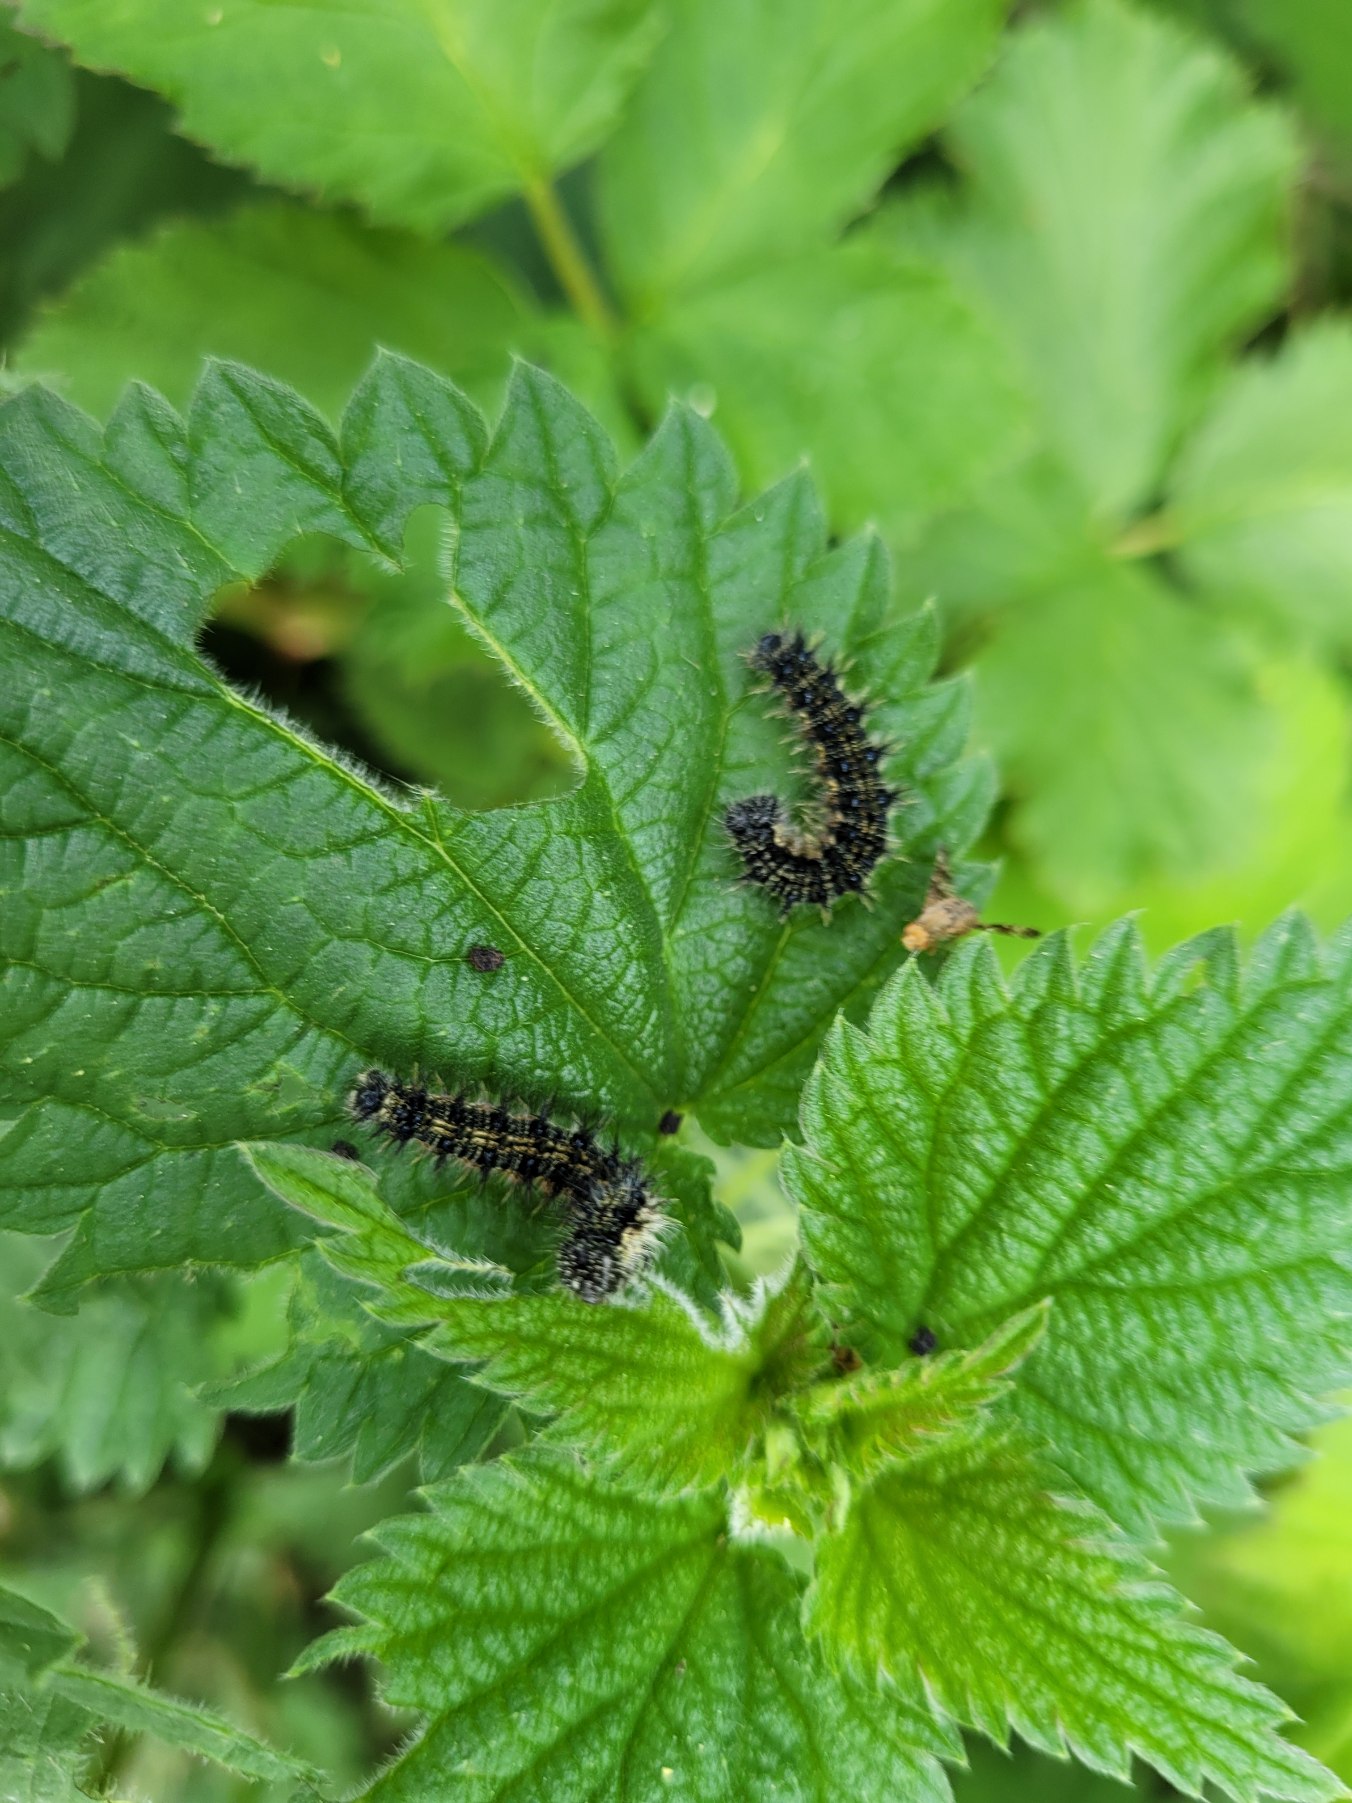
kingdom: Animalia
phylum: Arthropoda
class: Insecta
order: Lepidoptera
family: Nymphalidae
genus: Aglais
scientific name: Aglais urticae
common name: Nældens takvinge
